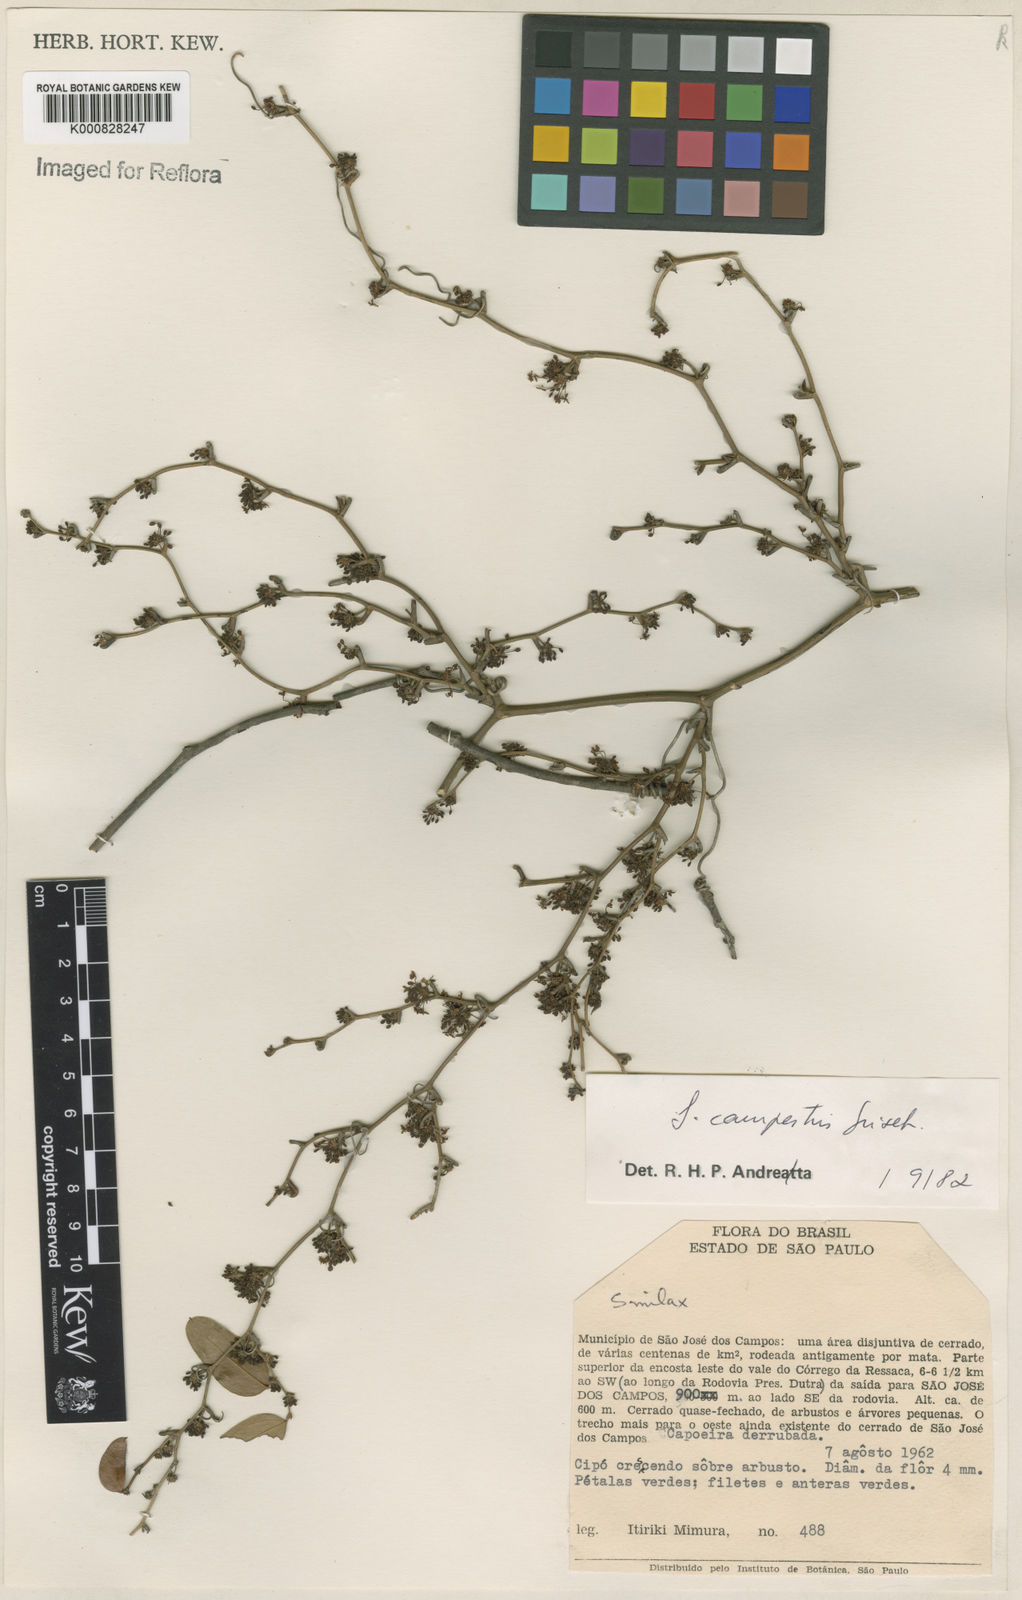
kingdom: Plantae
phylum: Tracheophyta
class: Liliopsida
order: Liliales
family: Smilacaceae
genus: Smilax
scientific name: Smilax campestris
